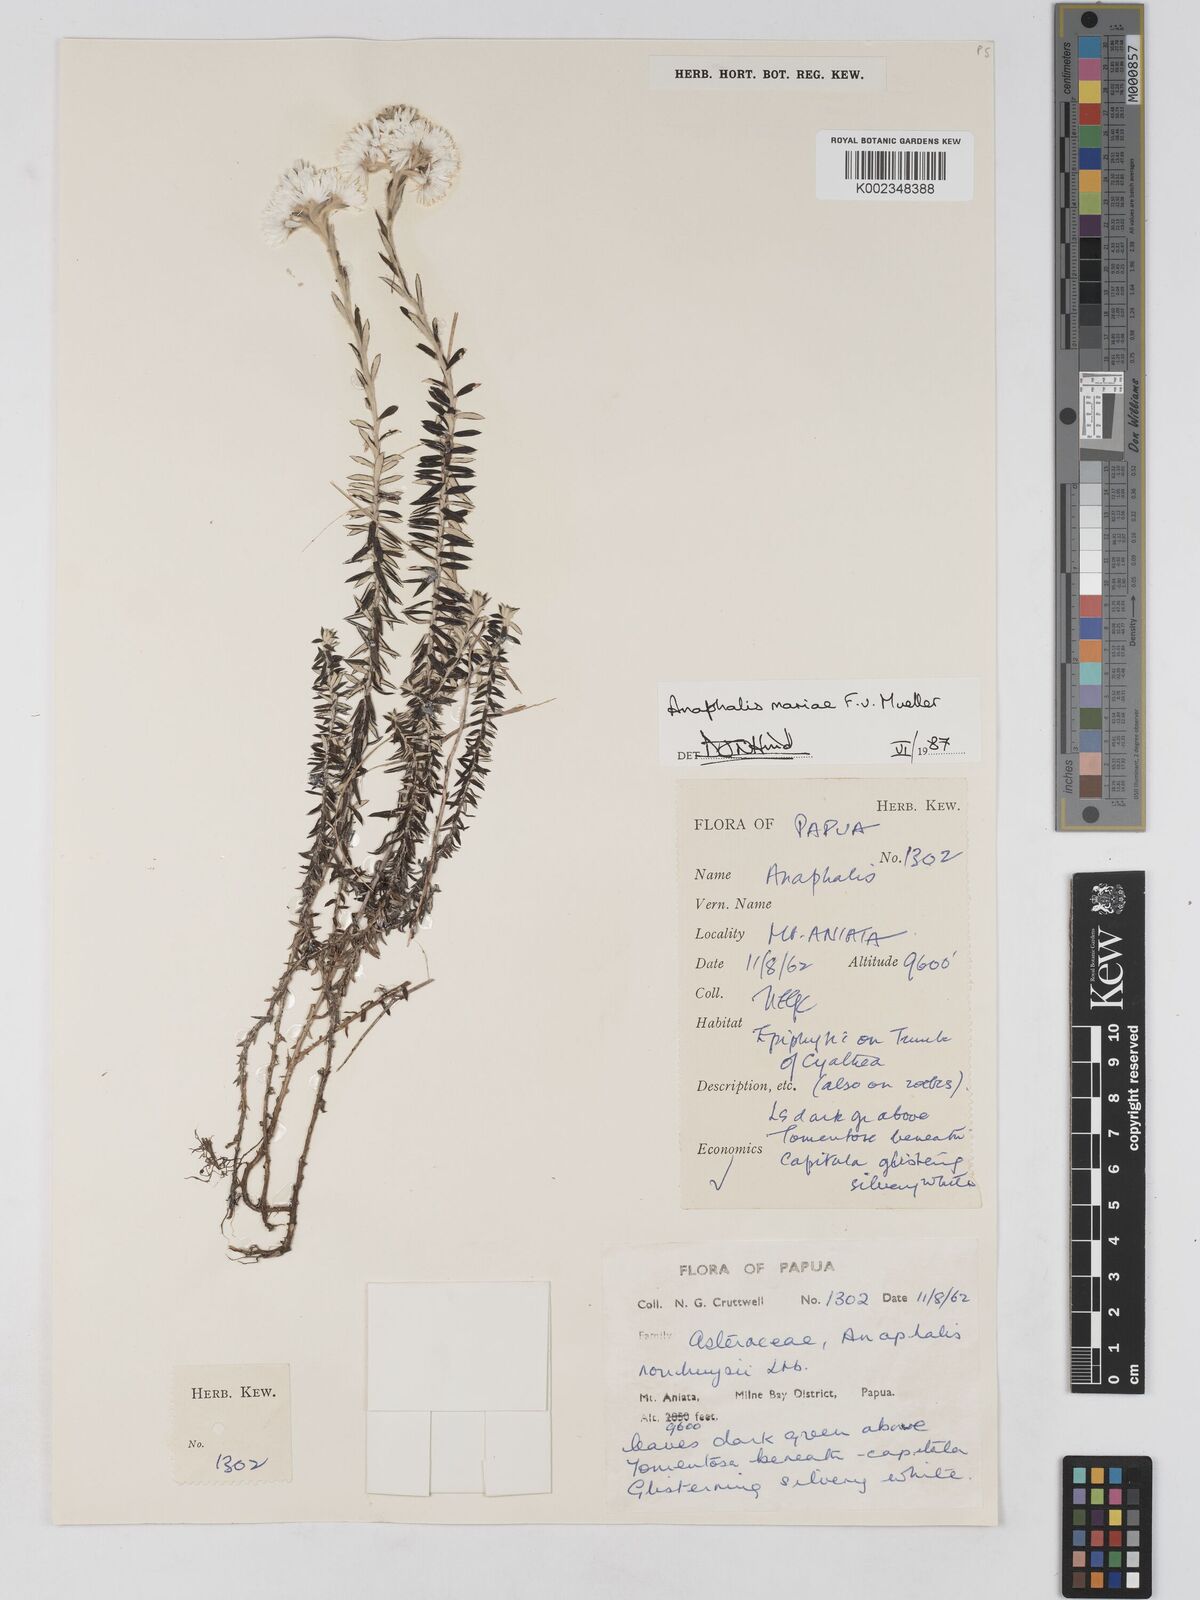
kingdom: Plantae
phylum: Tracheophyta
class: Magnoliopsida
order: Asterales
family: Asteraceae
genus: Anaphalioides
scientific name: Anaphalioides mariae
